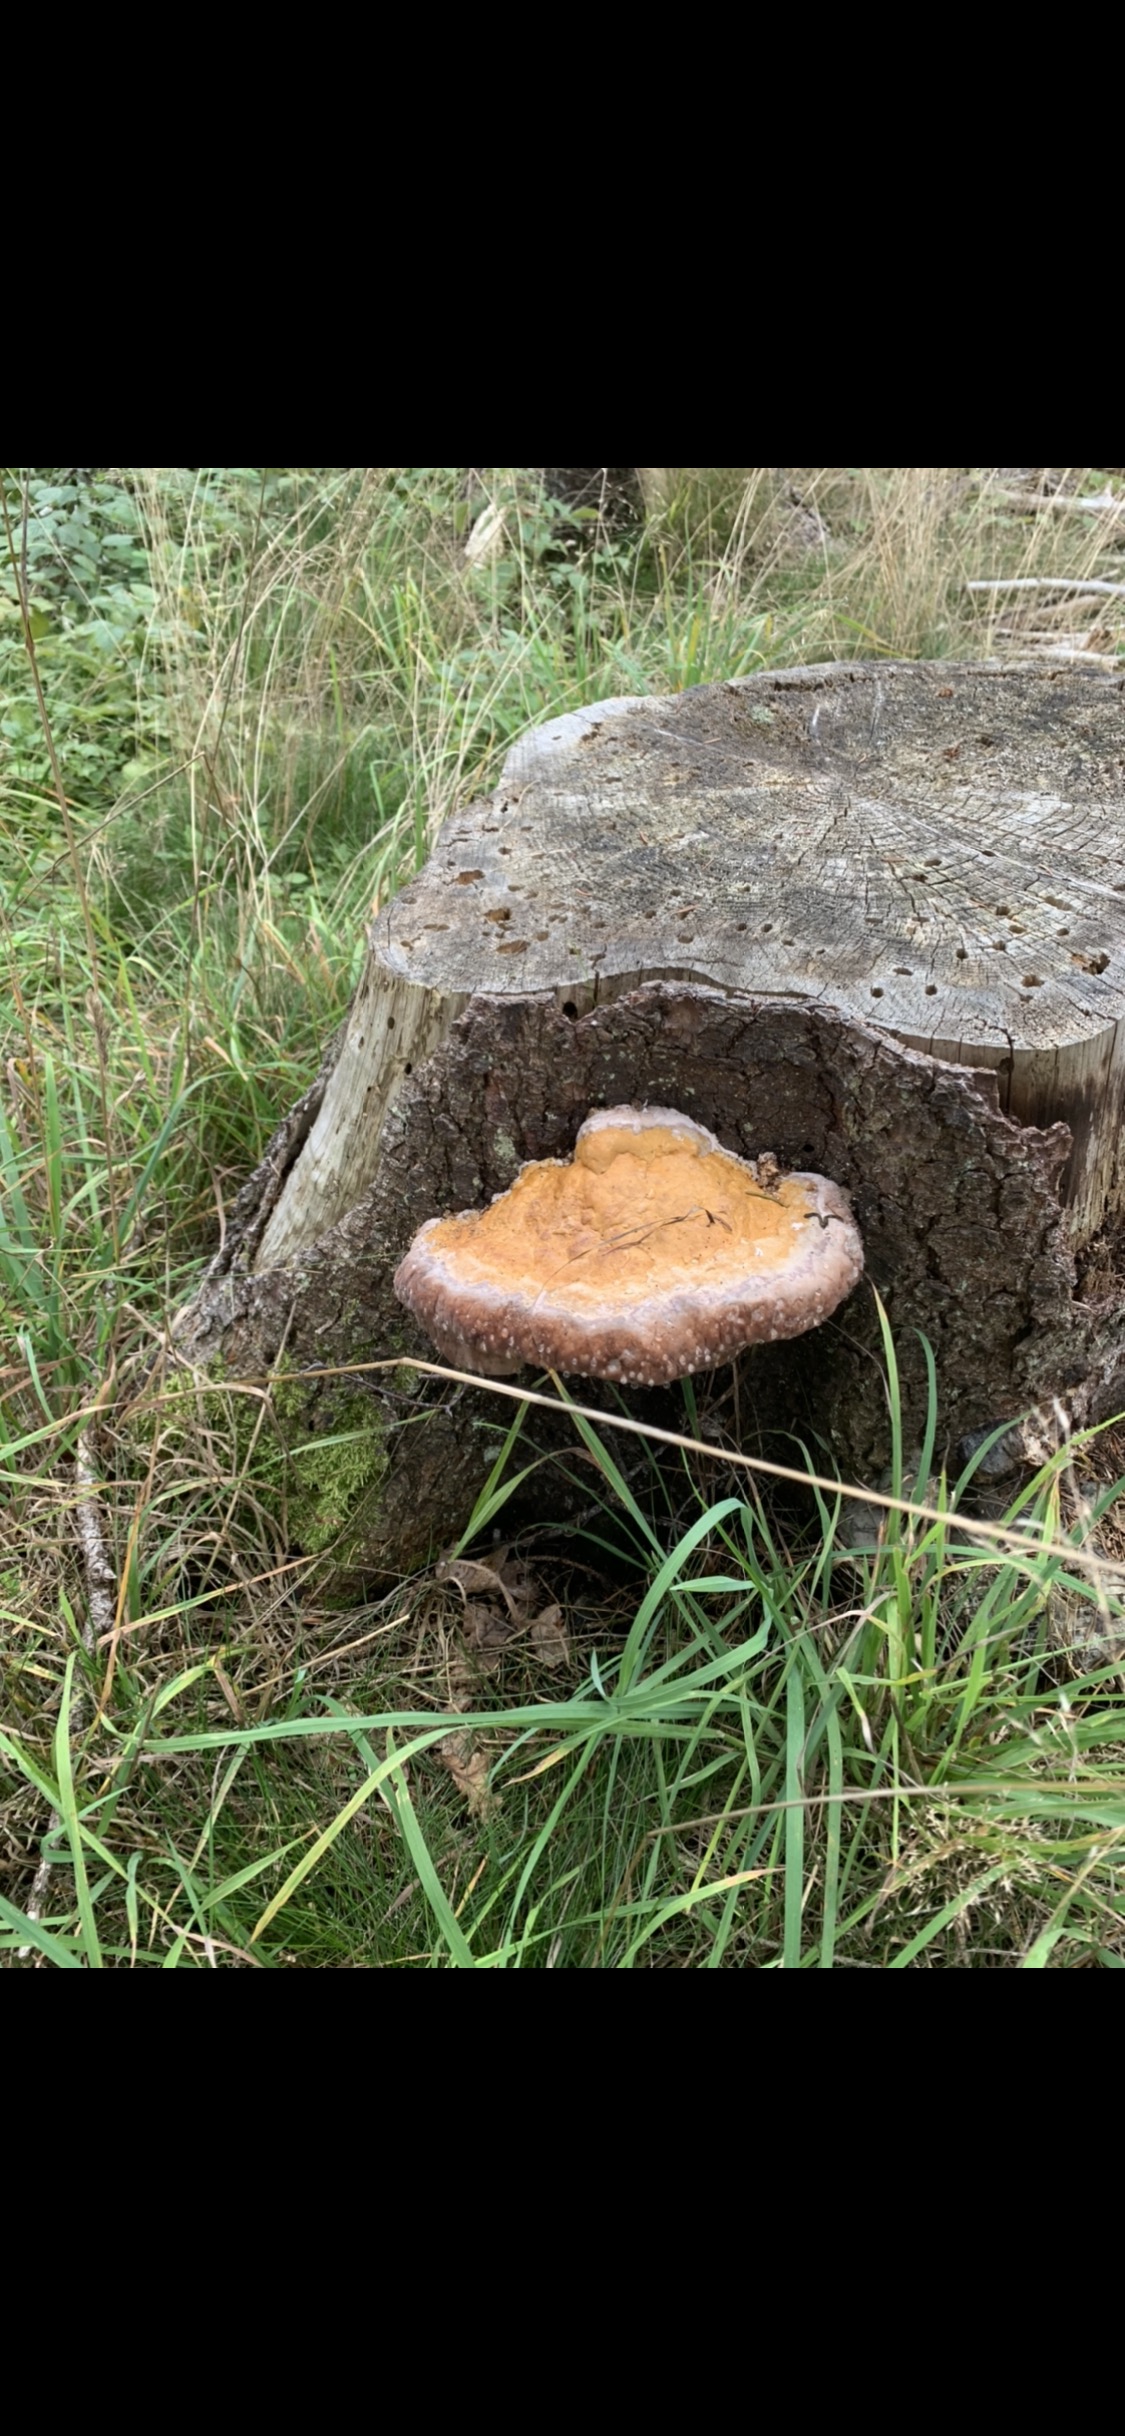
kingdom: Fungi
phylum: Basidiomycota
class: Agaricomycetes
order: Polyporales
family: Fomitopsidaceae
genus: Fomitopsis
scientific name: Fomitopsis pinicola
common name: randbæltet hovporesvamp
